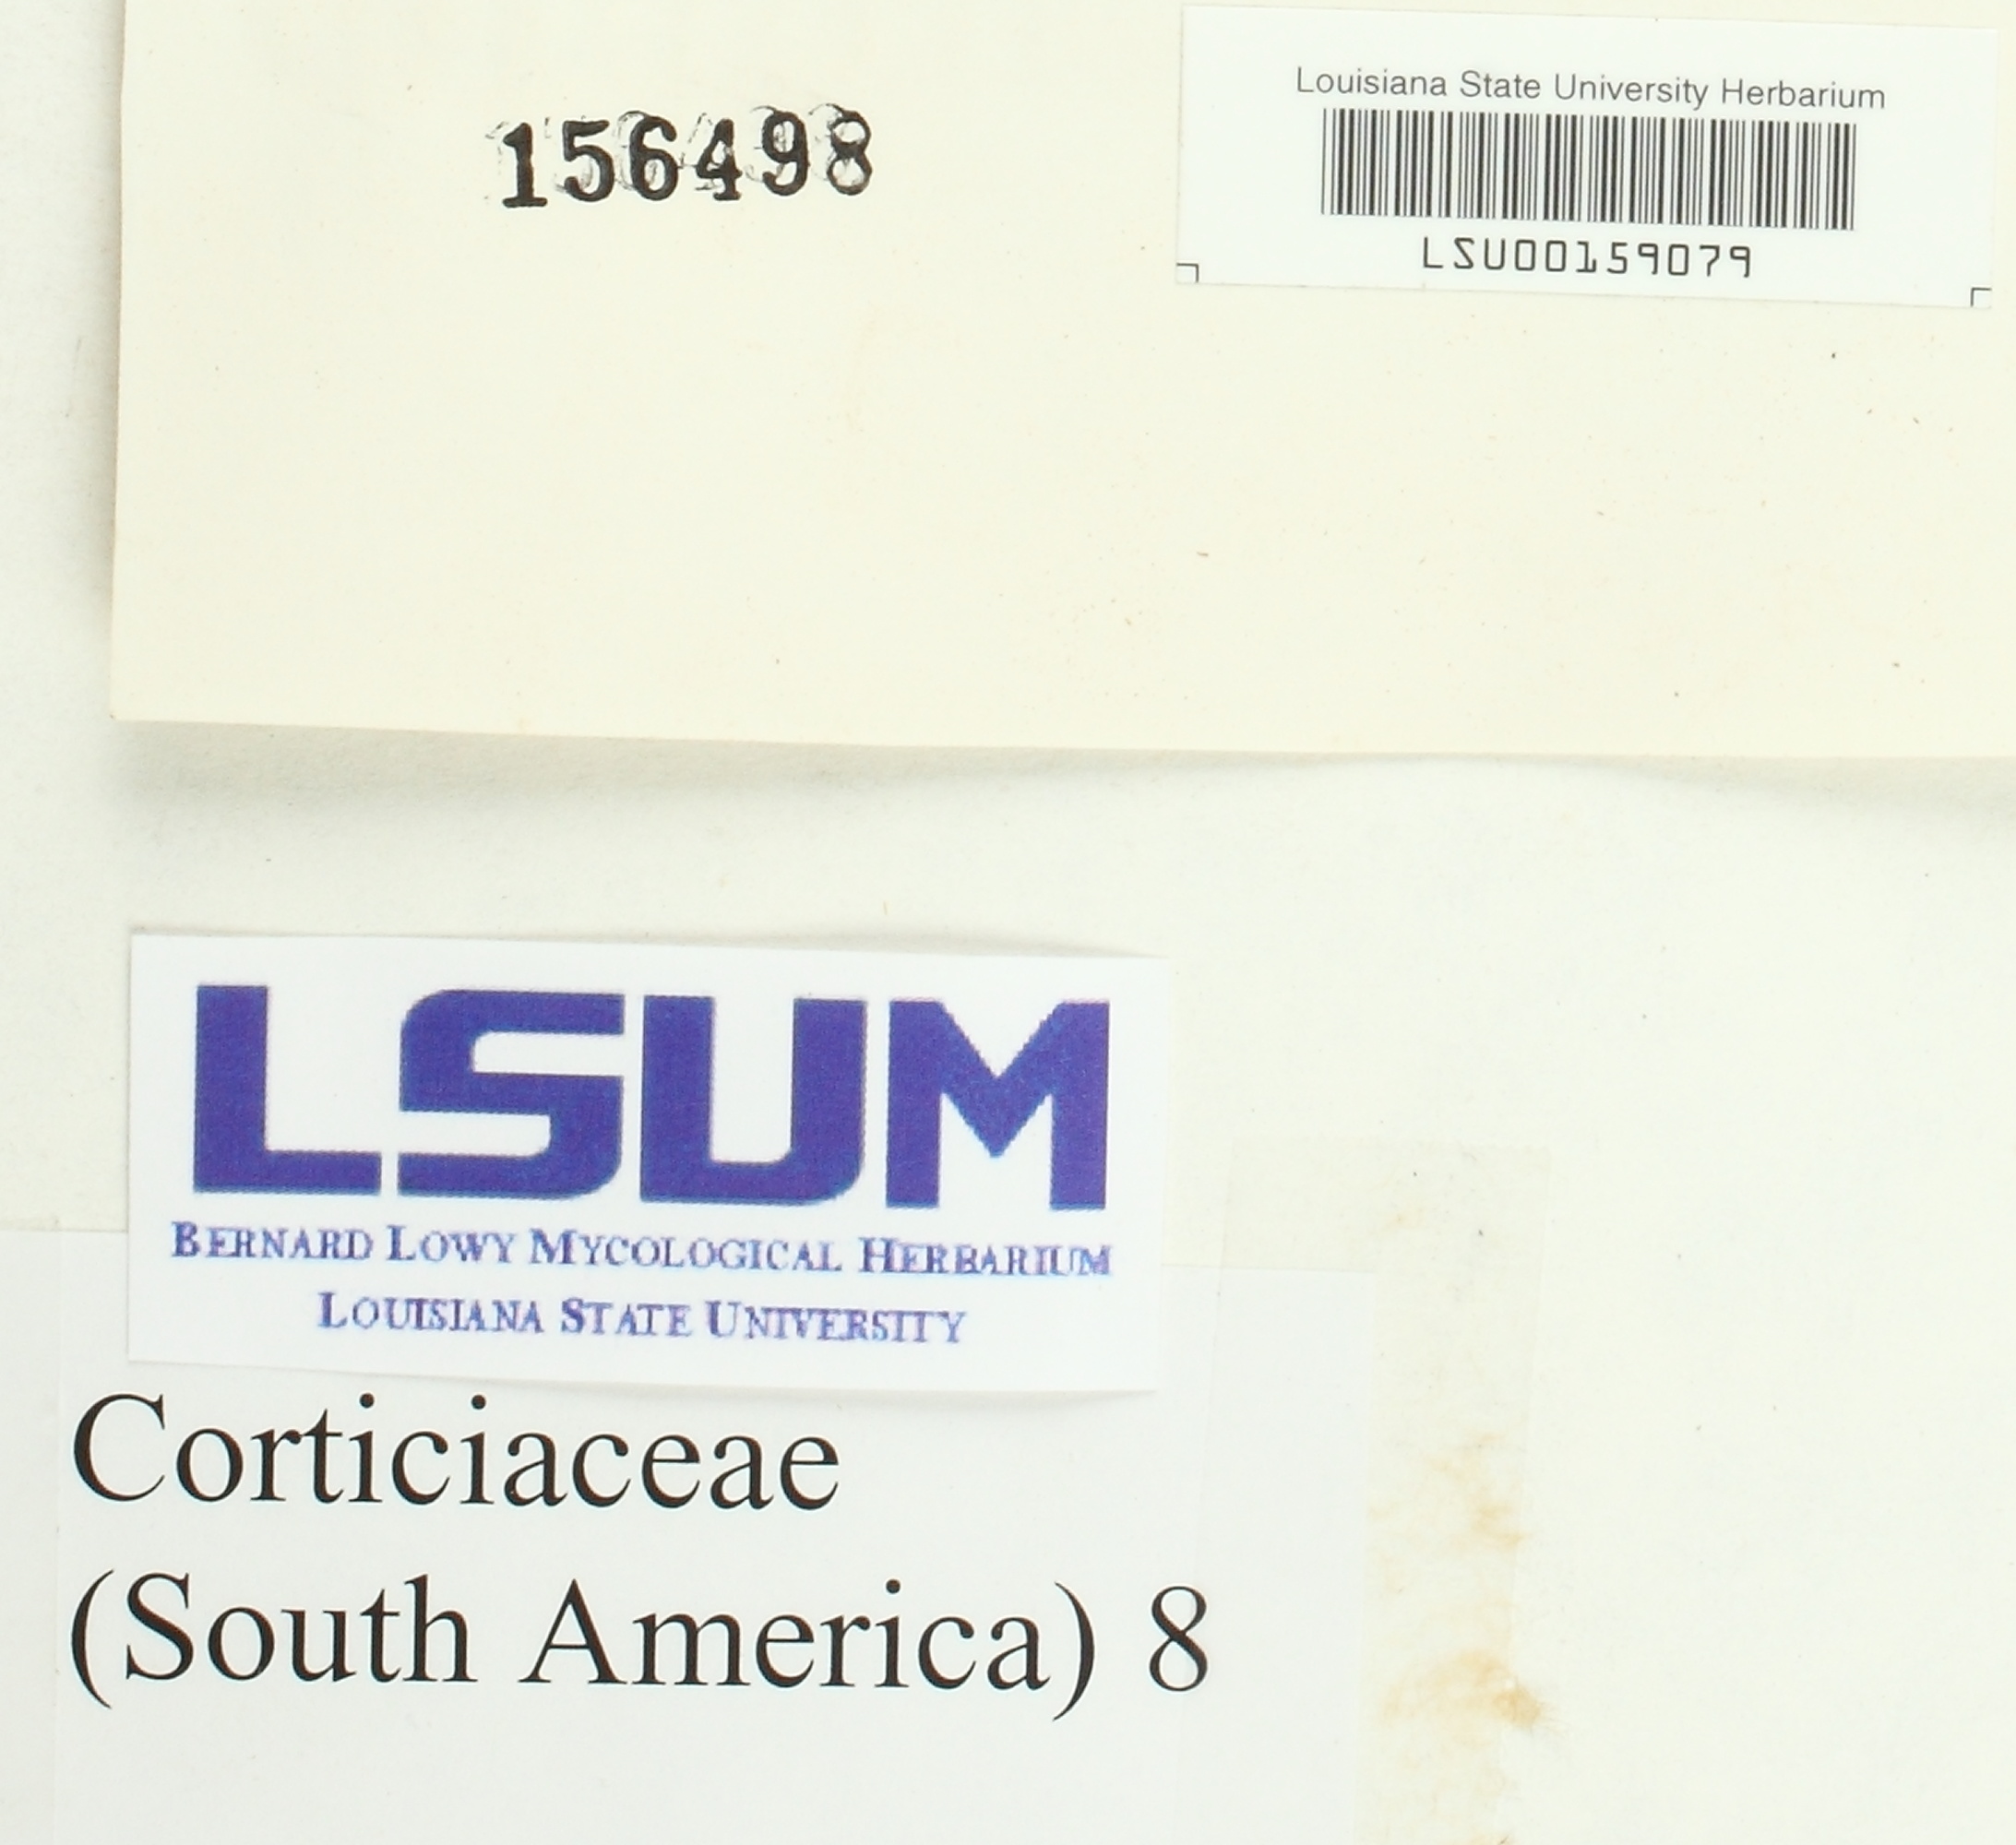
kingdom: Fungi
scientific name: Fungi
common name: Fungi
